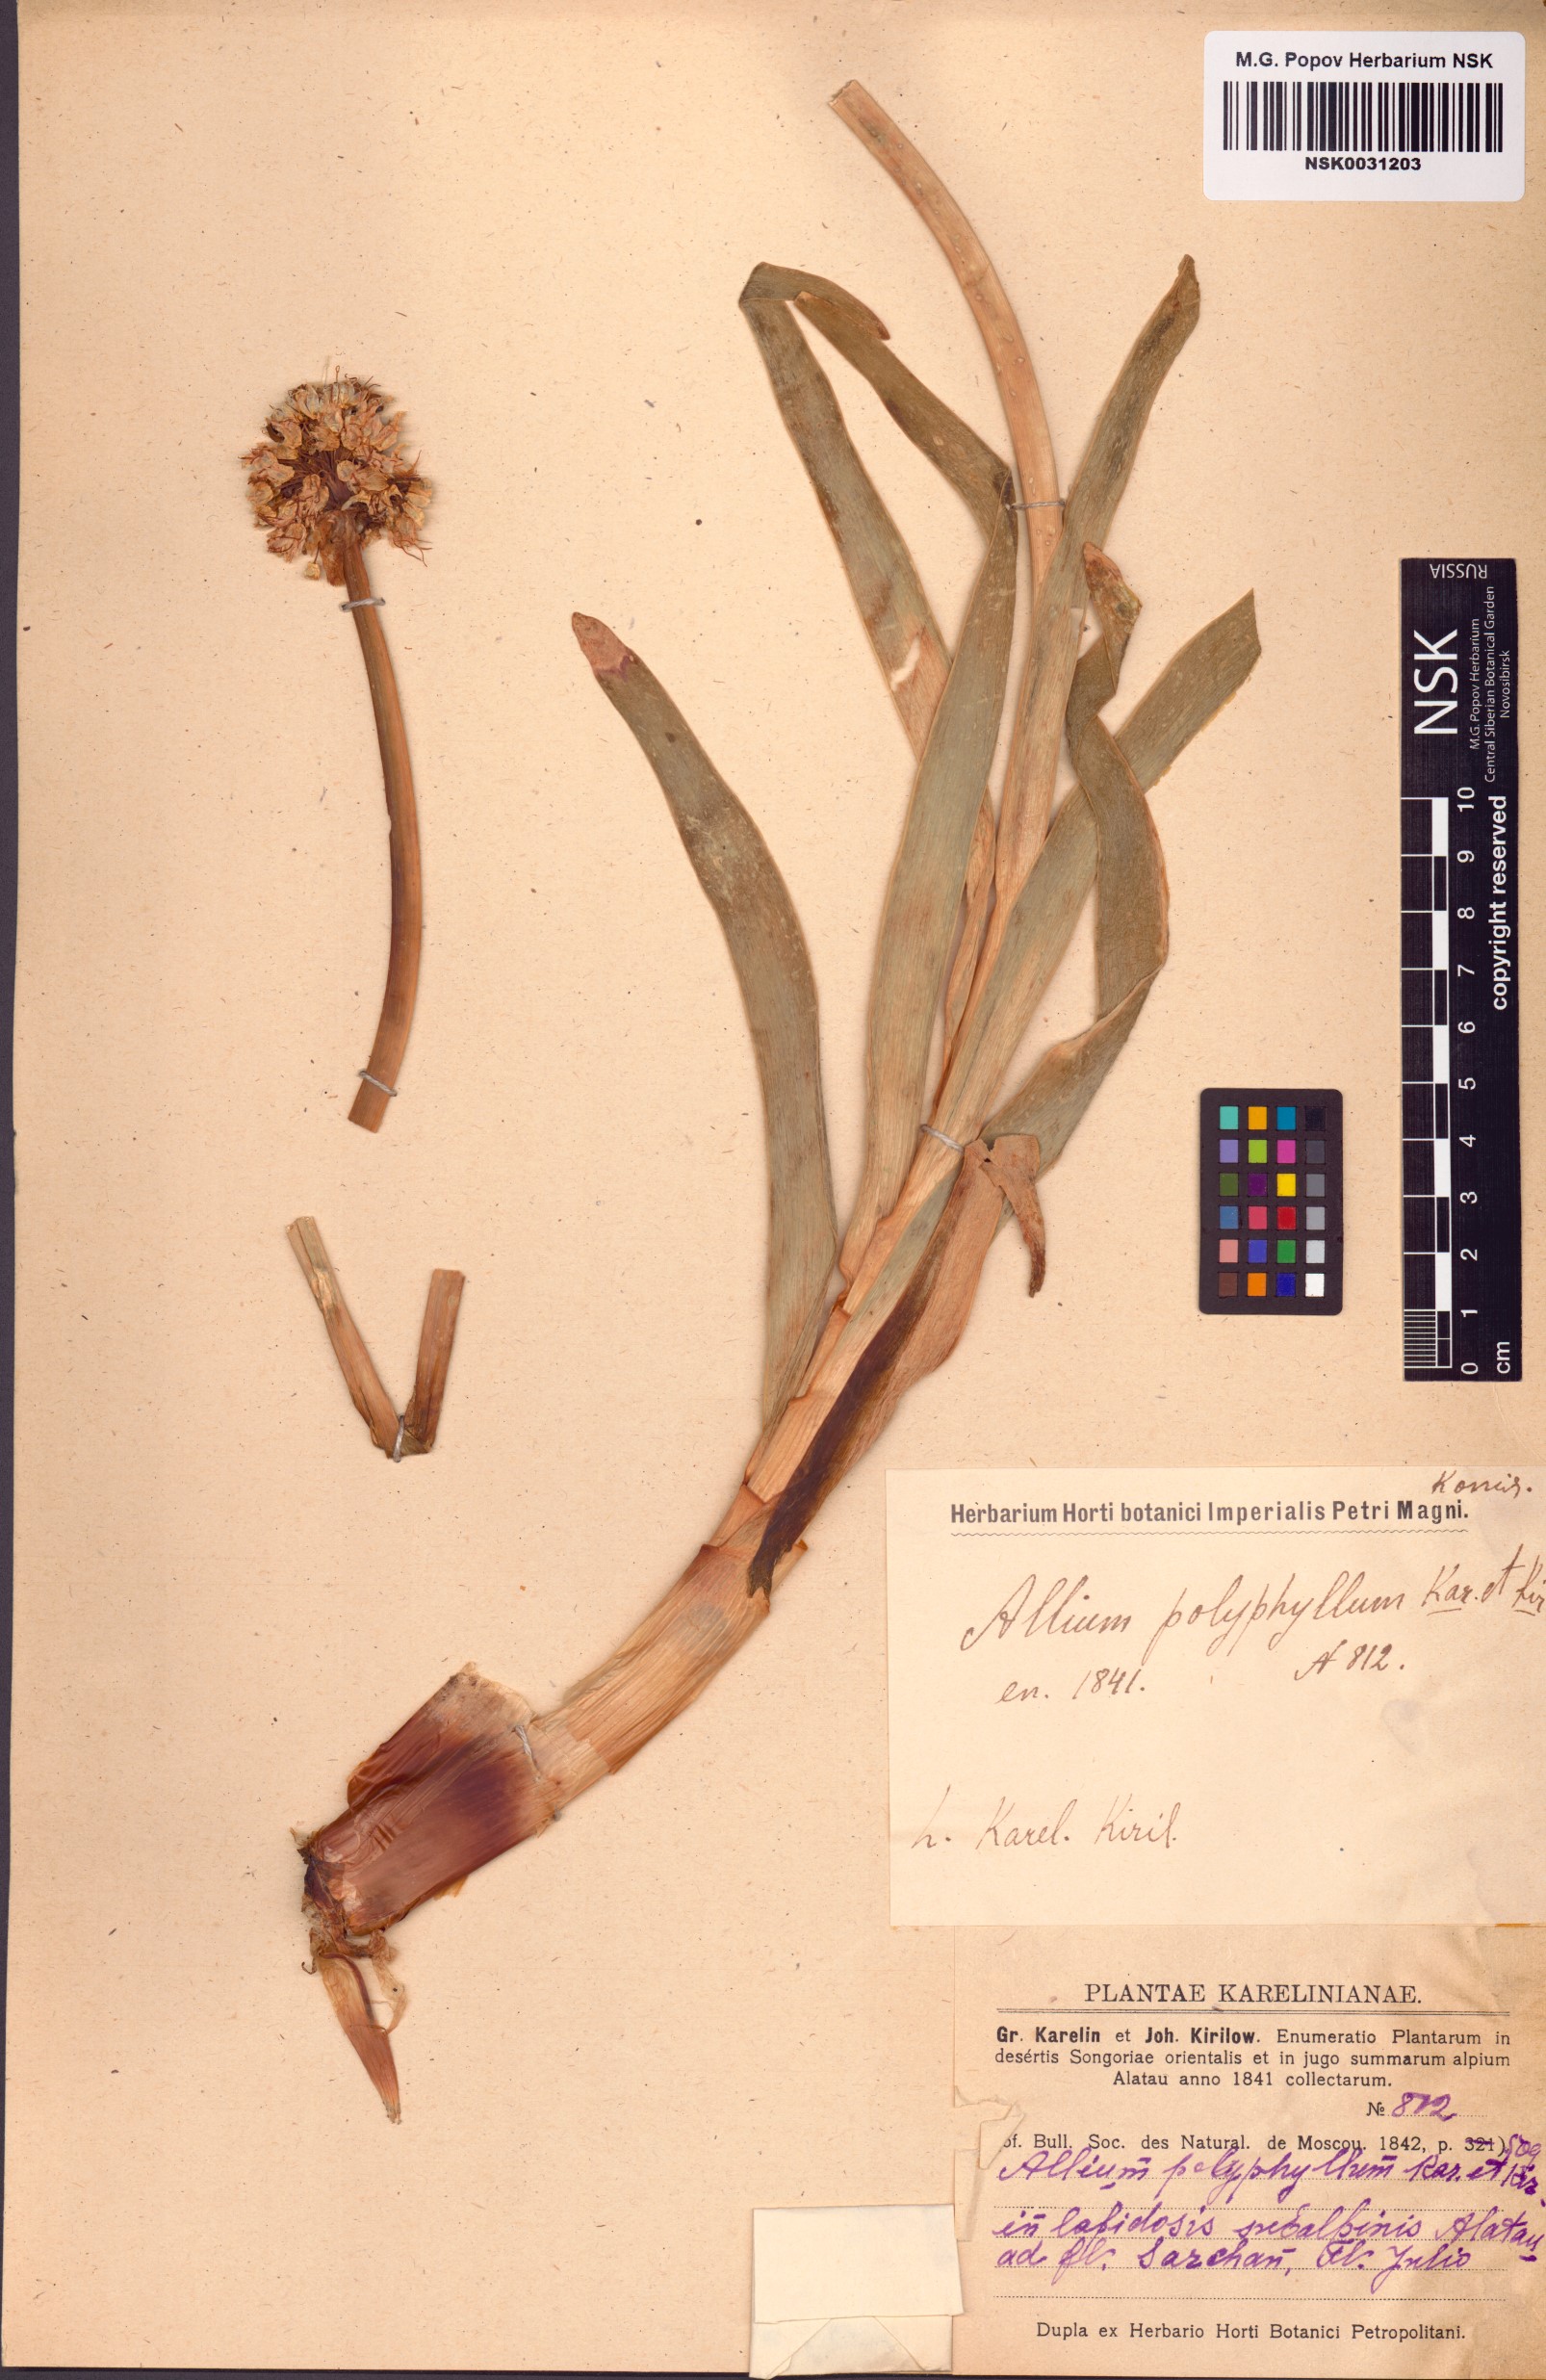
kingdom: Plantae
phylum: Tracheophyta
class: Liliopsida
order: Asparagales
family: Amaryllidaceae
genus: Allium
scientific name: Allium carolinianum
